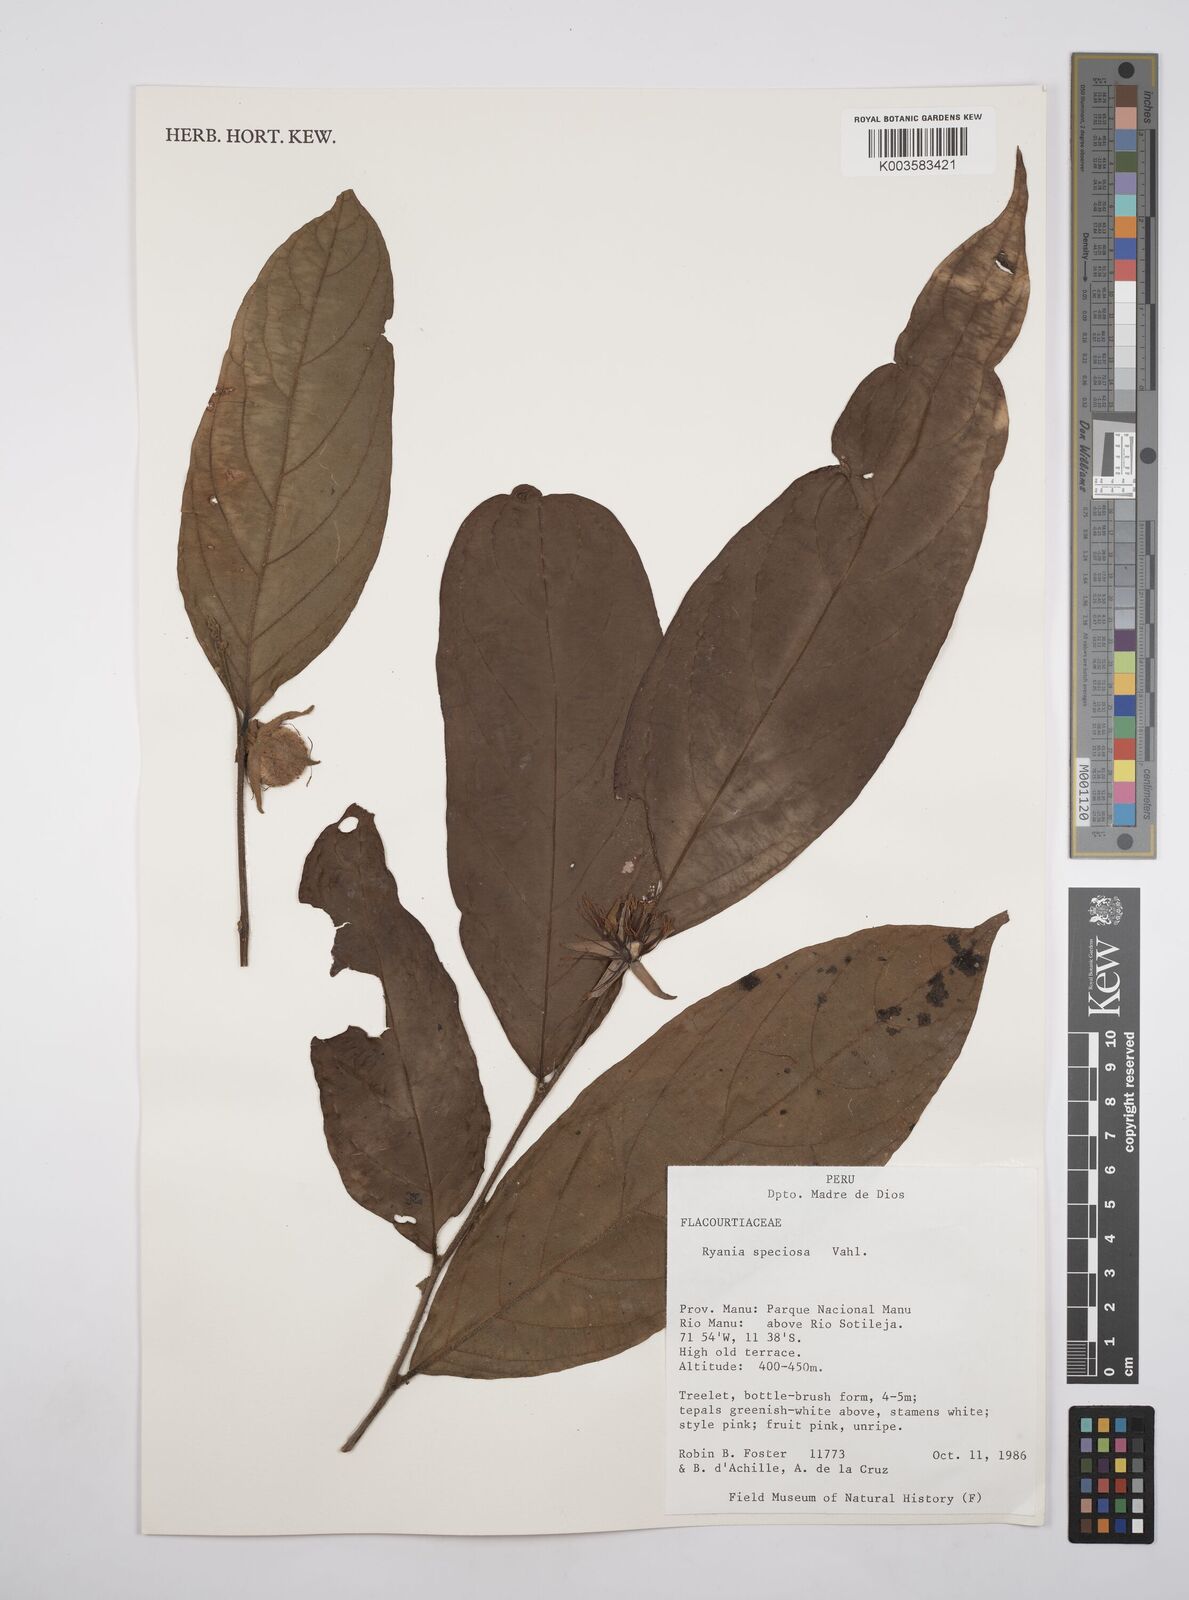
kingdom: Plantae
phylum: Tracheophyta
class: Magnoliopsida
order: Malpighiales
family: Salicaceae
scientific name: Salicaceae
